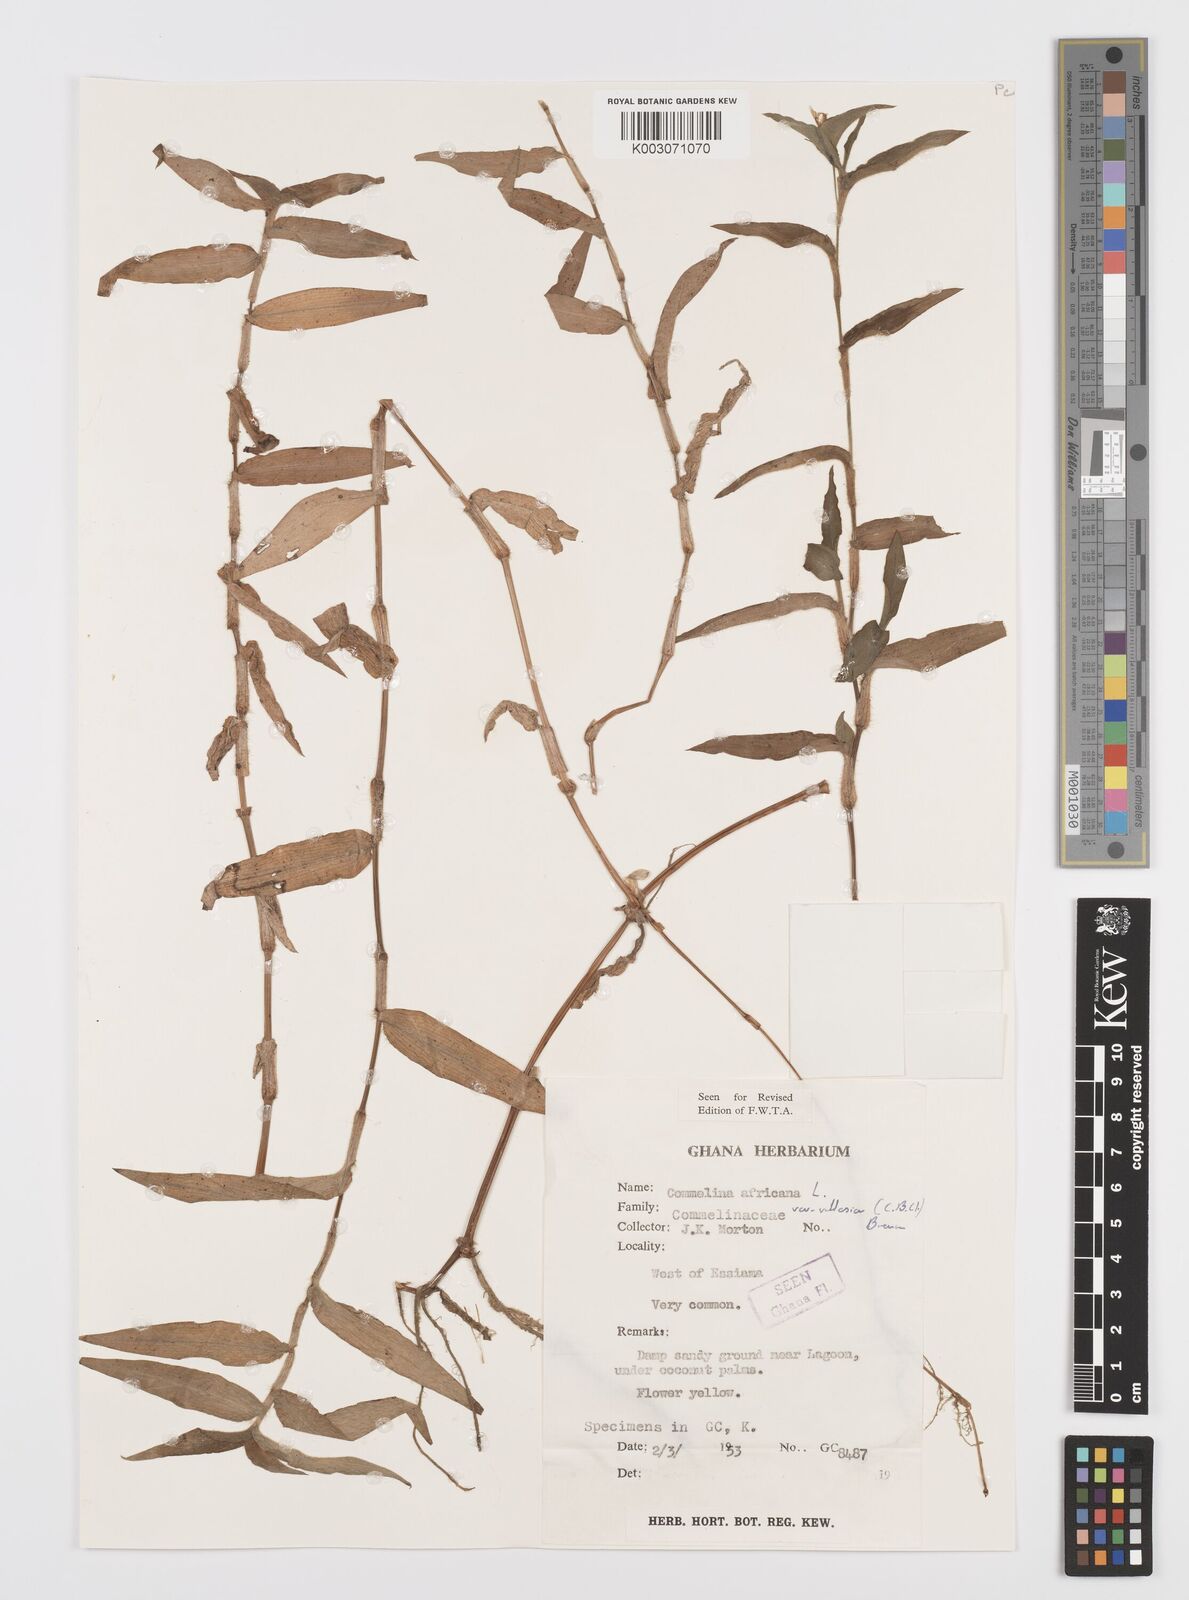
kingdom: Plantae
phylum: Tracheophyta
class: Liliopsida
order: Commelinales
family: Commelinaceae
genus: Commelina
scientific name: Commelina africana
